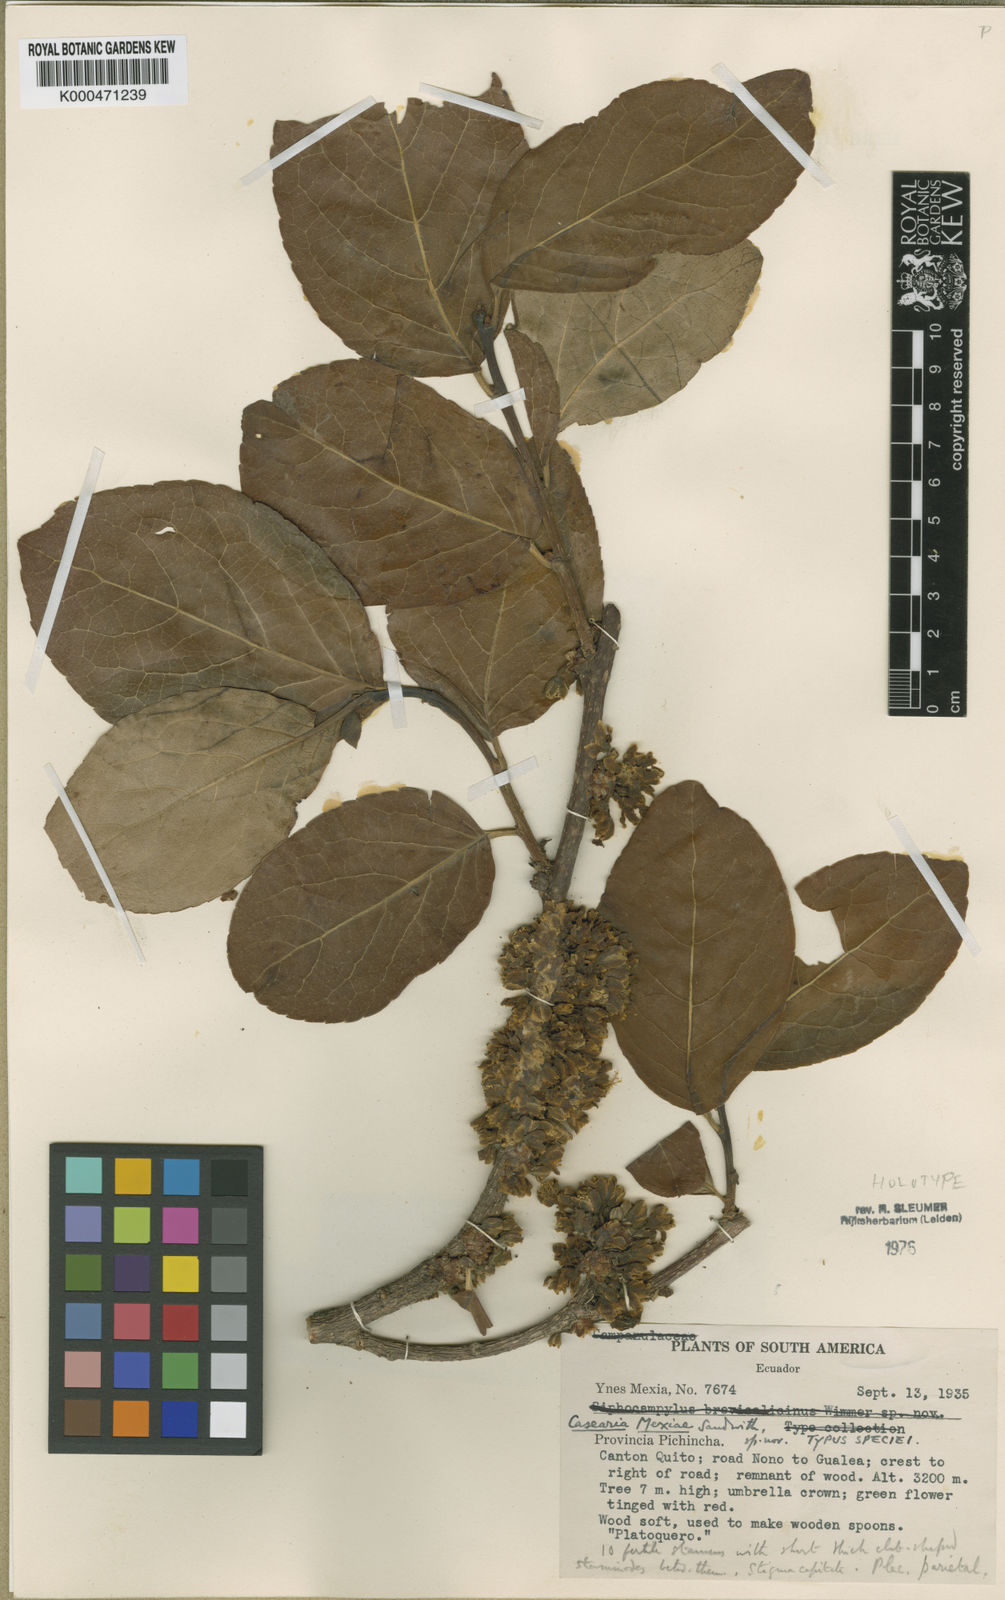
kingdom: Plantae
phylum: Tracheophyta
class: Magnoliopsida
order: Malpighiales
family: Salicaceae
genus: Casearia
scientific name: Casearia mexiae
